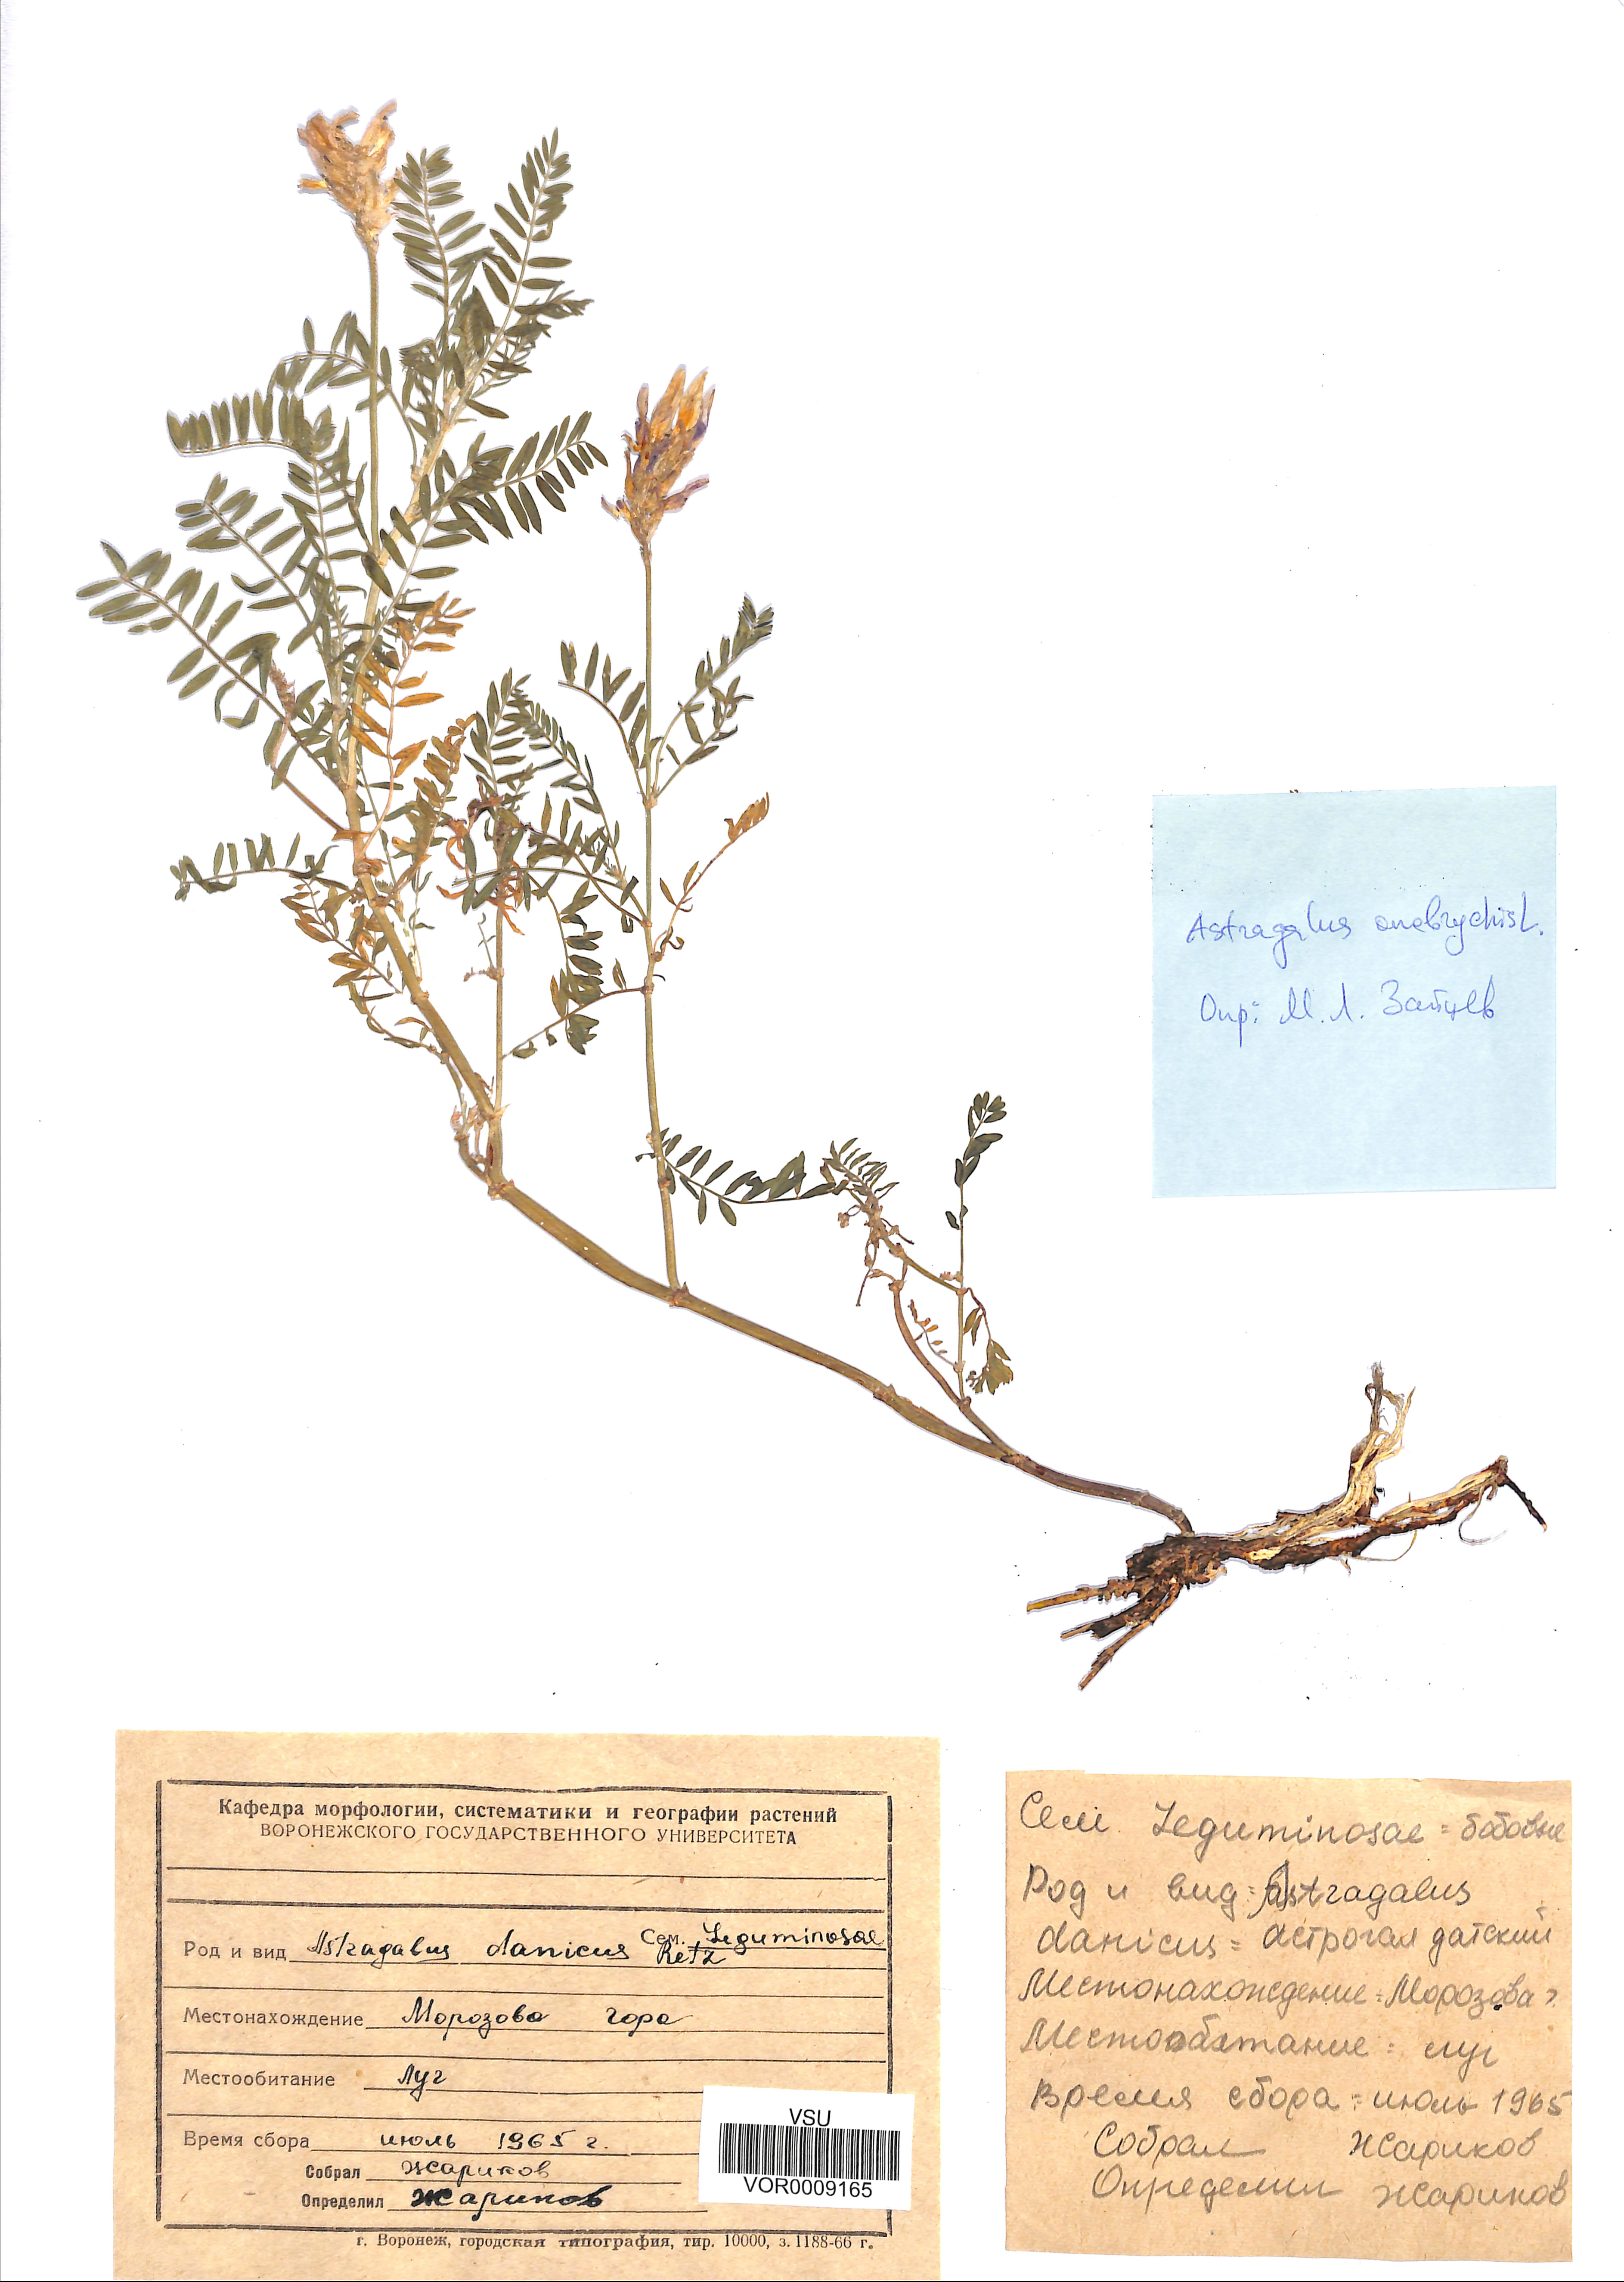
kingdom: Plantae
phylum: Tracheophyta
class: Magnoliopsida
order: Fabales
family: Fabaceae
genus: Astragalus
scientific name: Astragalus onobrychis
